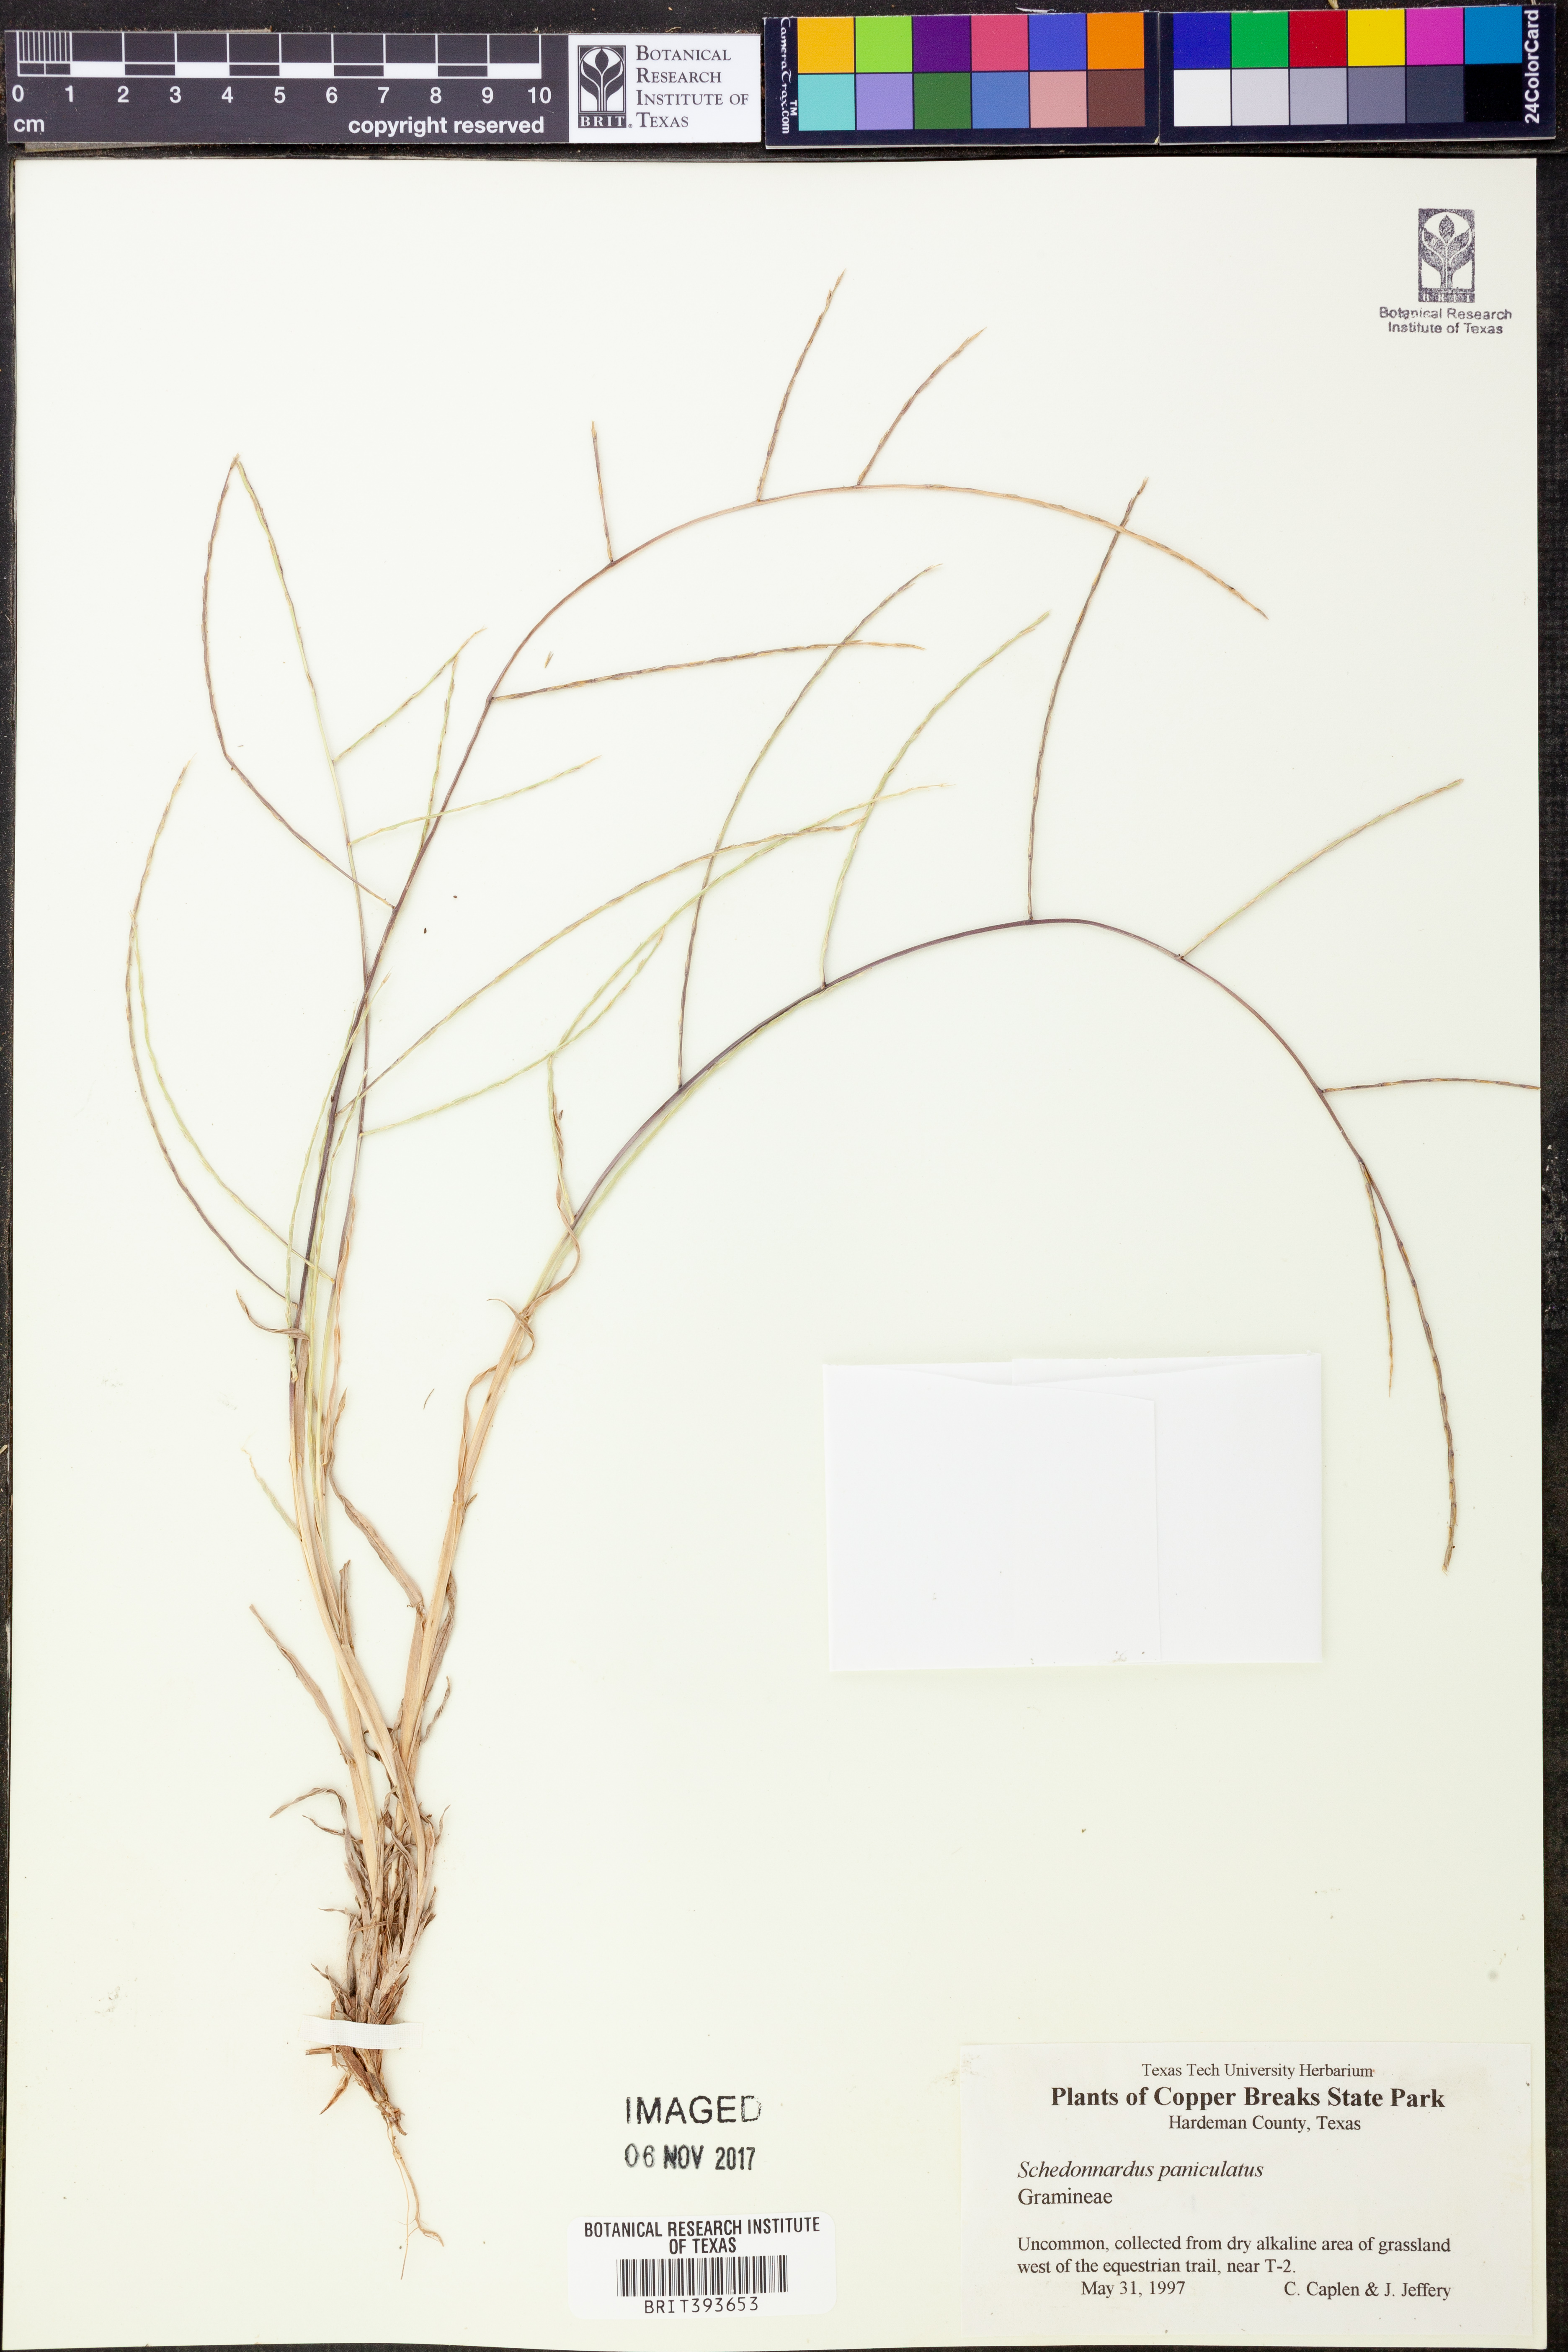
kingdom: Plantae
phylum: Tracheophyta
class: Liliopsida
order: Poales
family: Poaceae
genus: Muhlenbergia
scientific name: Muhlenbergia paniculata
